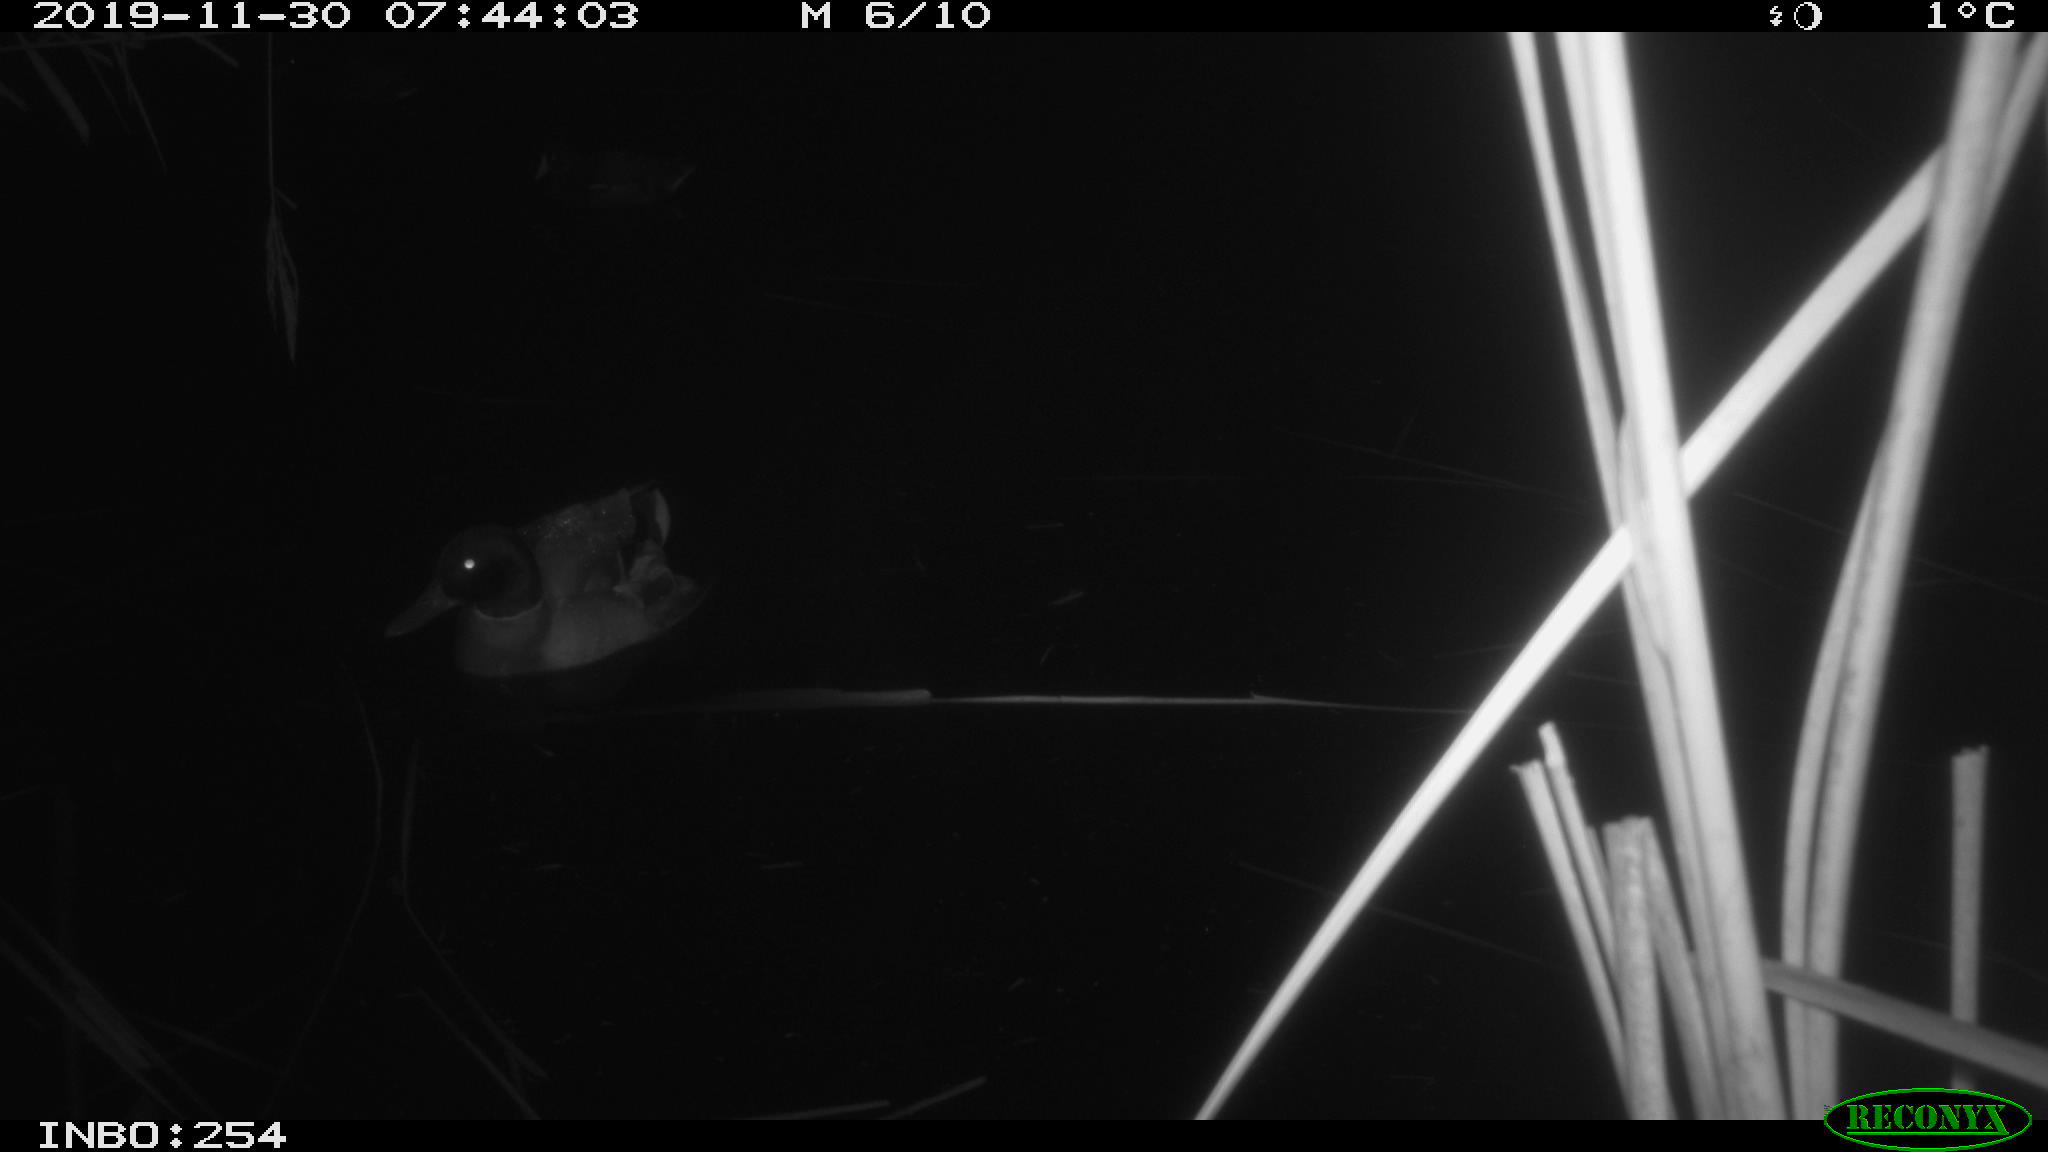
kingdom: Animalia
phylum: Chordata
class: Aves
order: Anseriformes
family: Anatidae
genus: Anas
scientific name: Anas platyrhynchos
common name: Mallard
